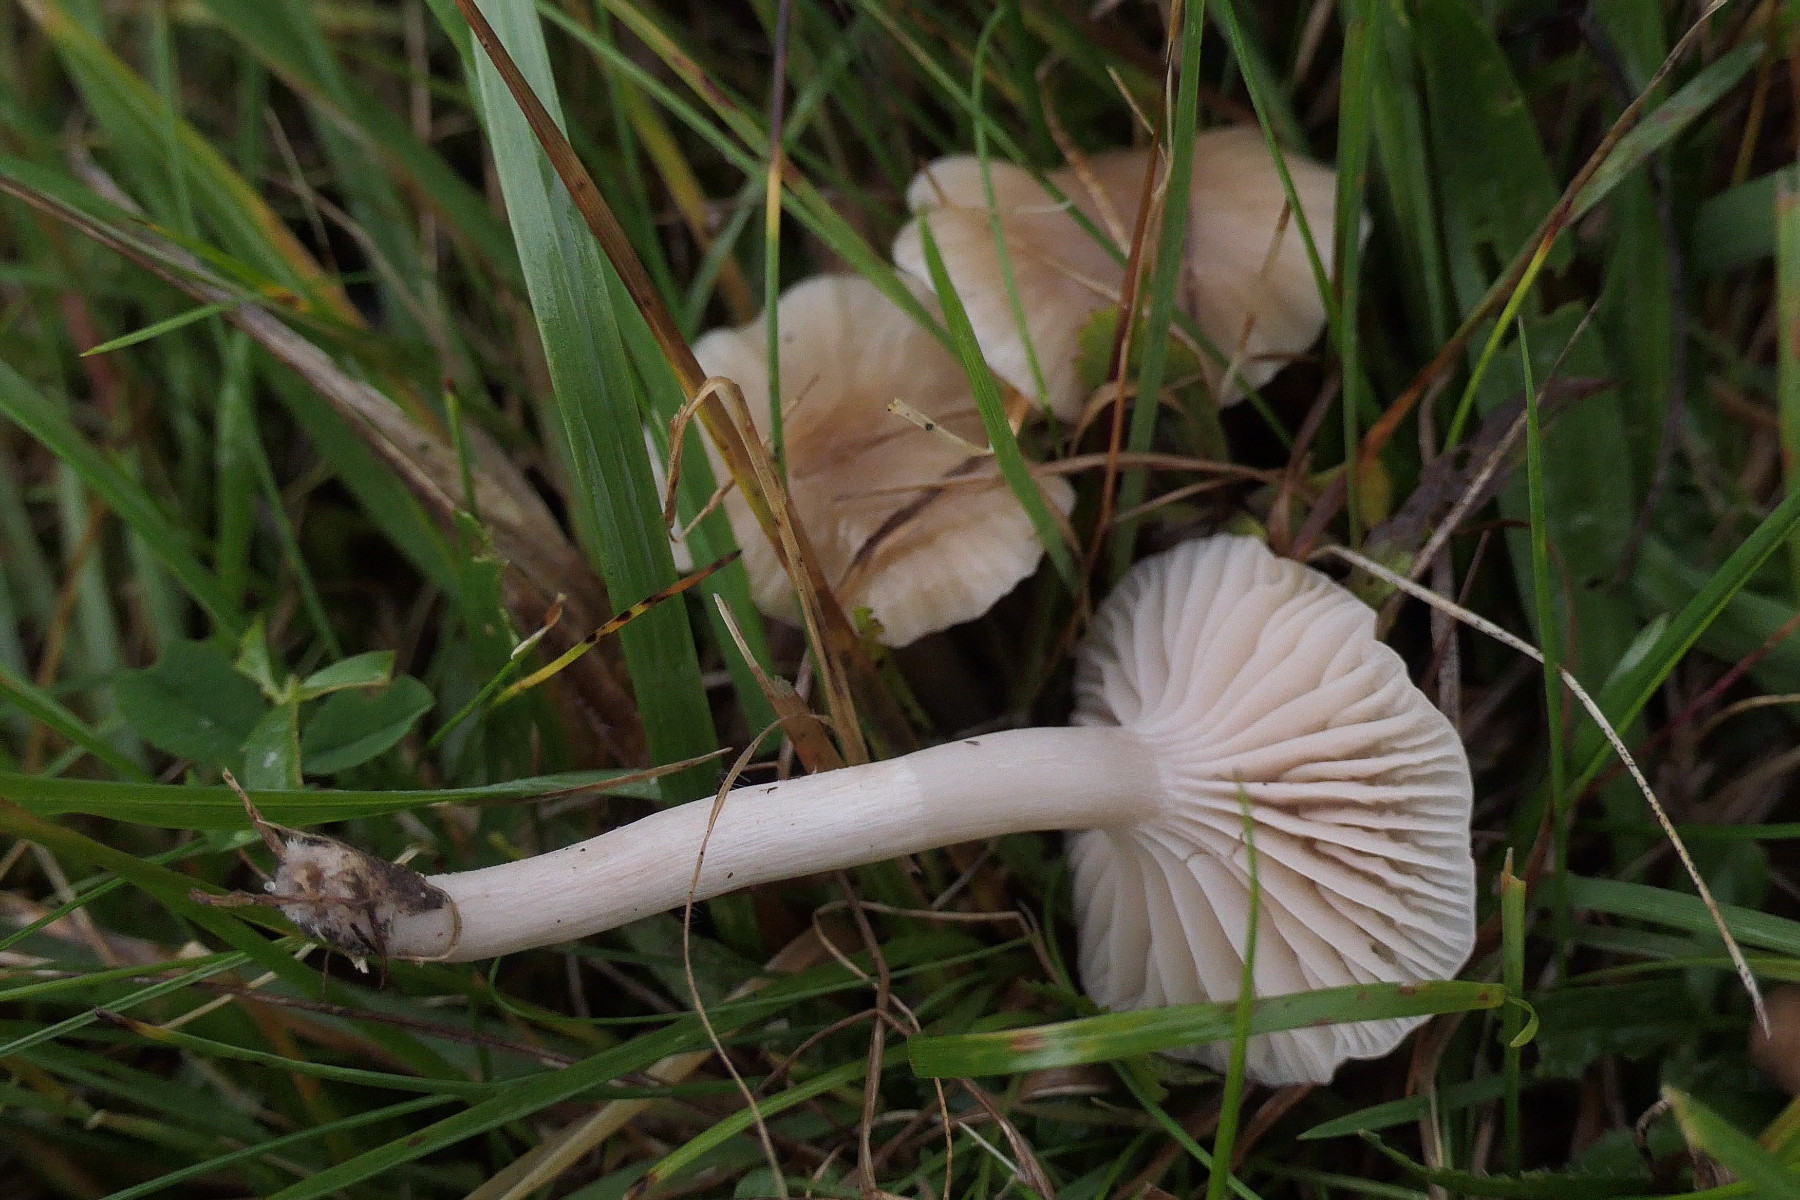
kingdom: Fungi
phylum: Basidiomycota
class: Agaricomycetes
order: Agaricales
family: Hygrophoraceae
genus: Cuphophyllus
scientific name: Cuphophyllus virgineus
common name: isabella-vokshat
